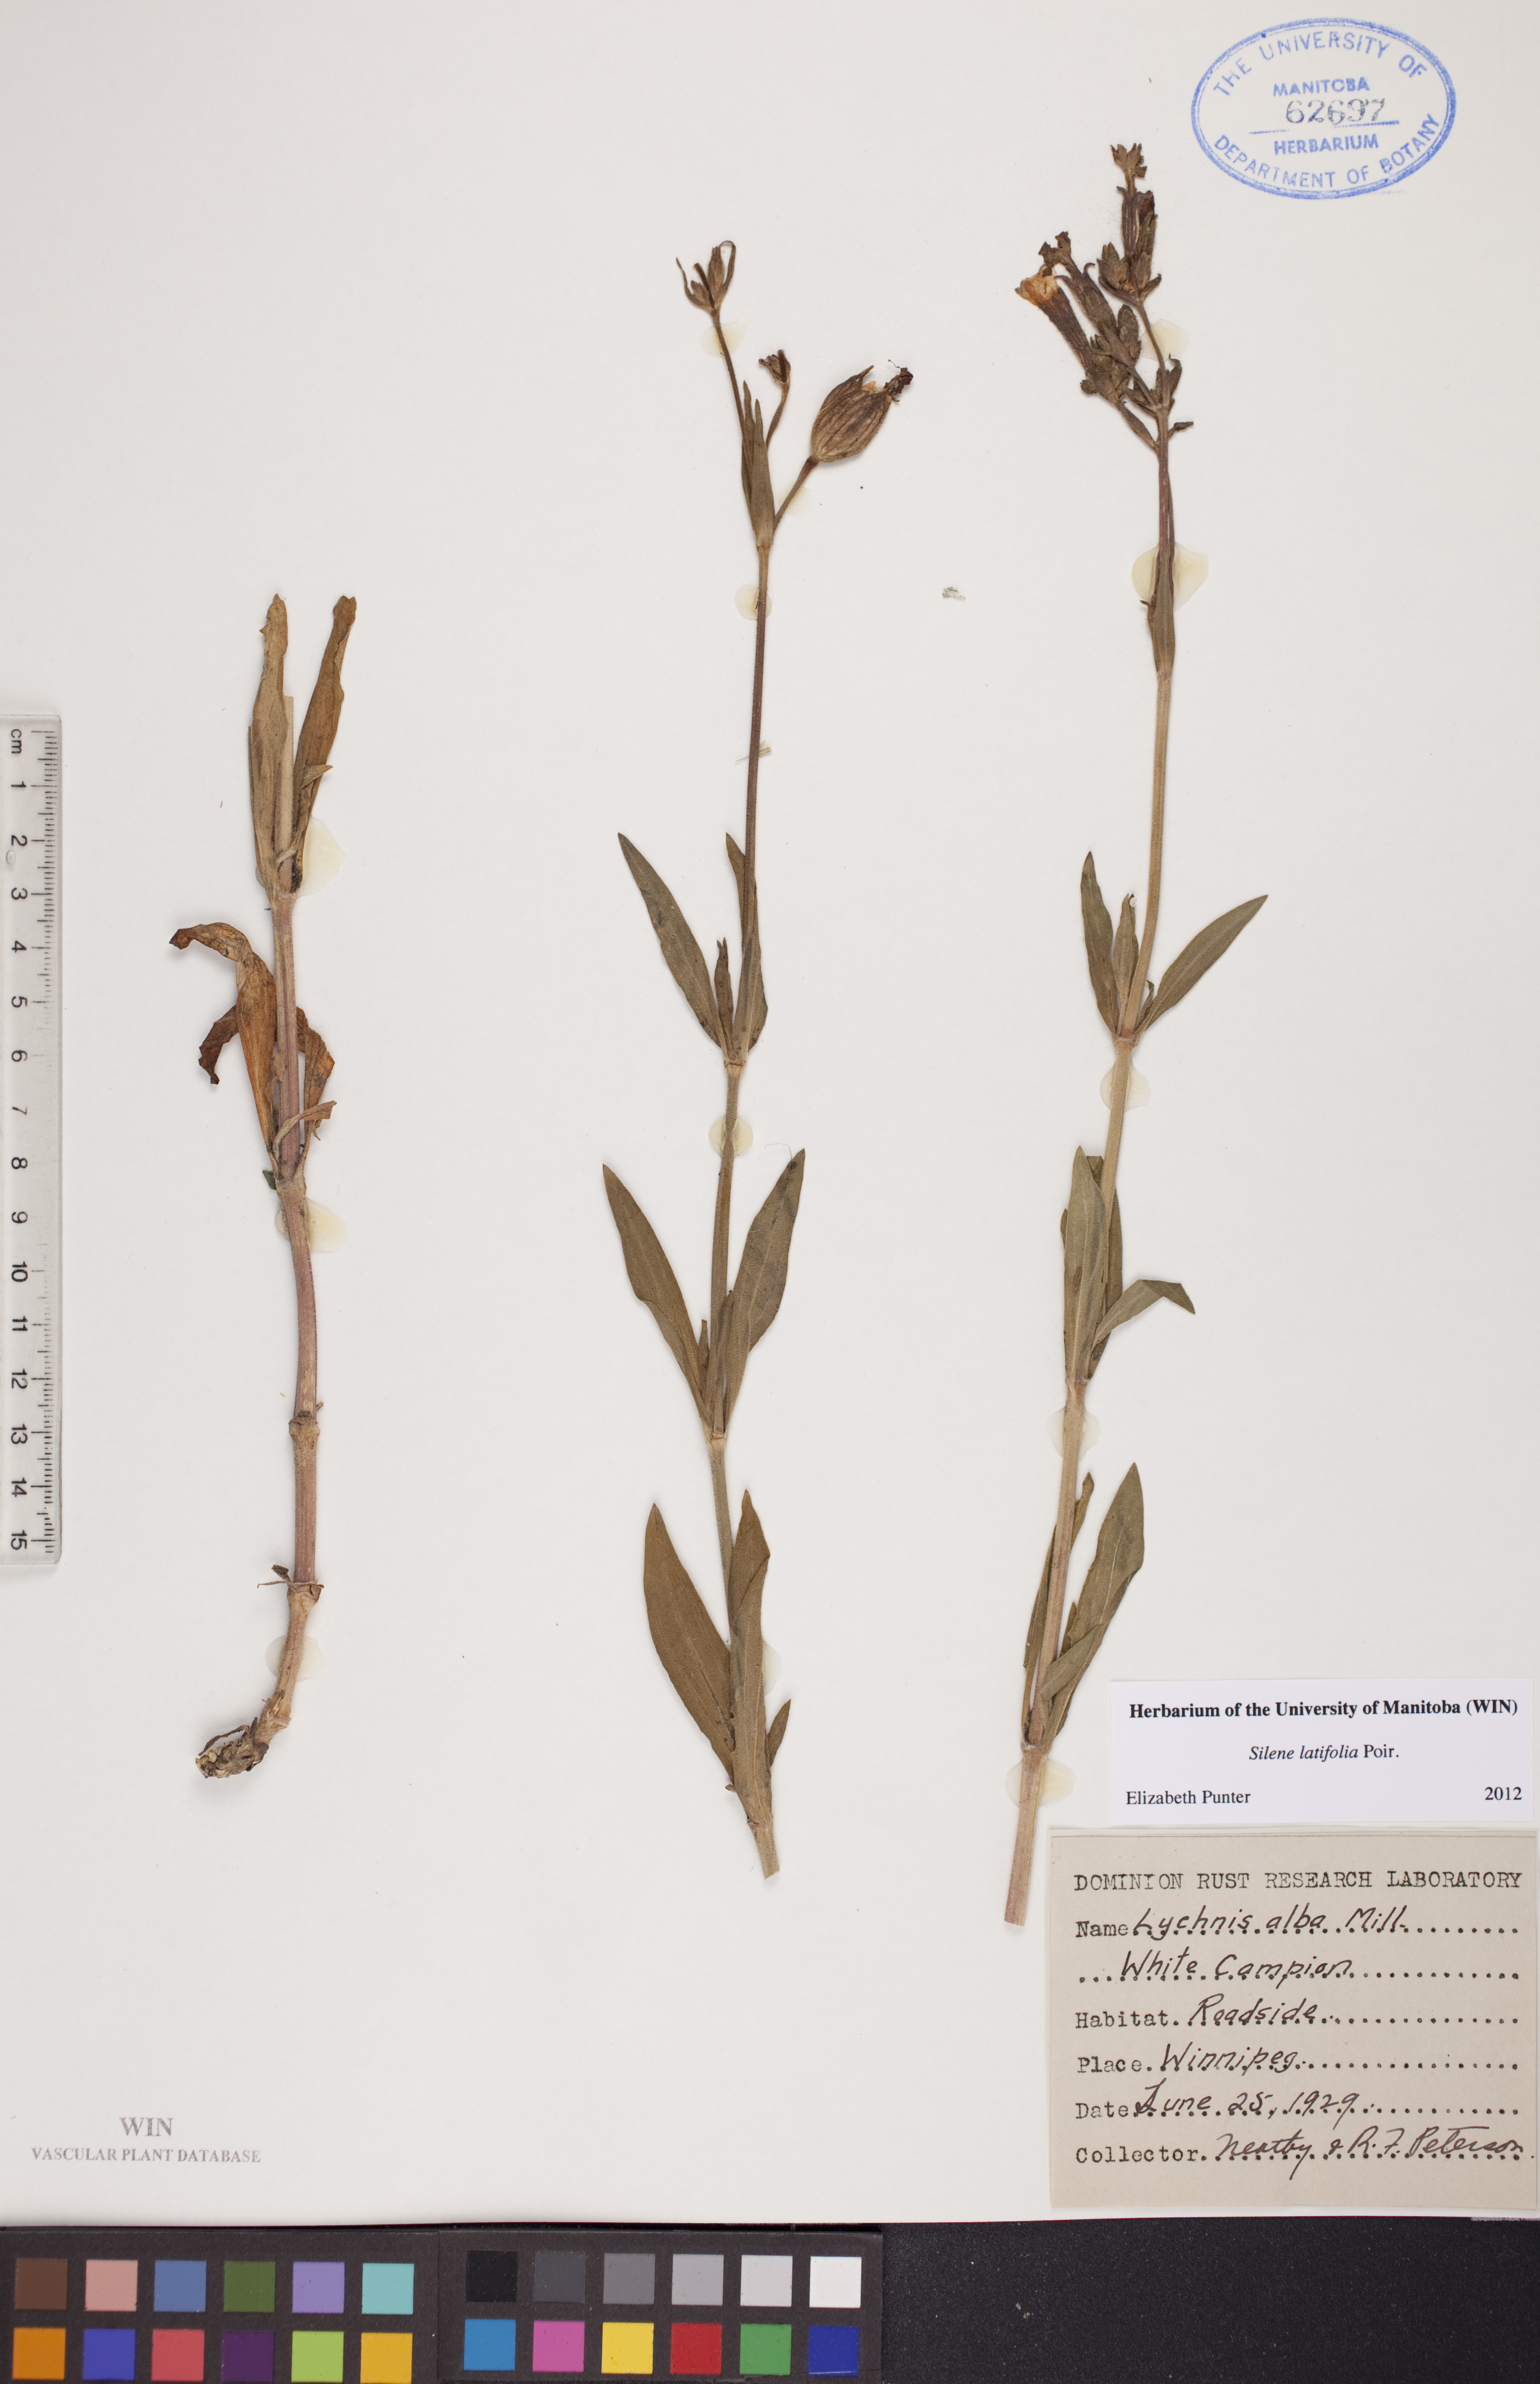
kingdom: Plantae
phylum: Tracheophyta
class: Magnoliopsida
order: Caryophyllales
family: Caryophyllaceae
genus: Silene
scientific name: Silene latifolia
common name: White campion
